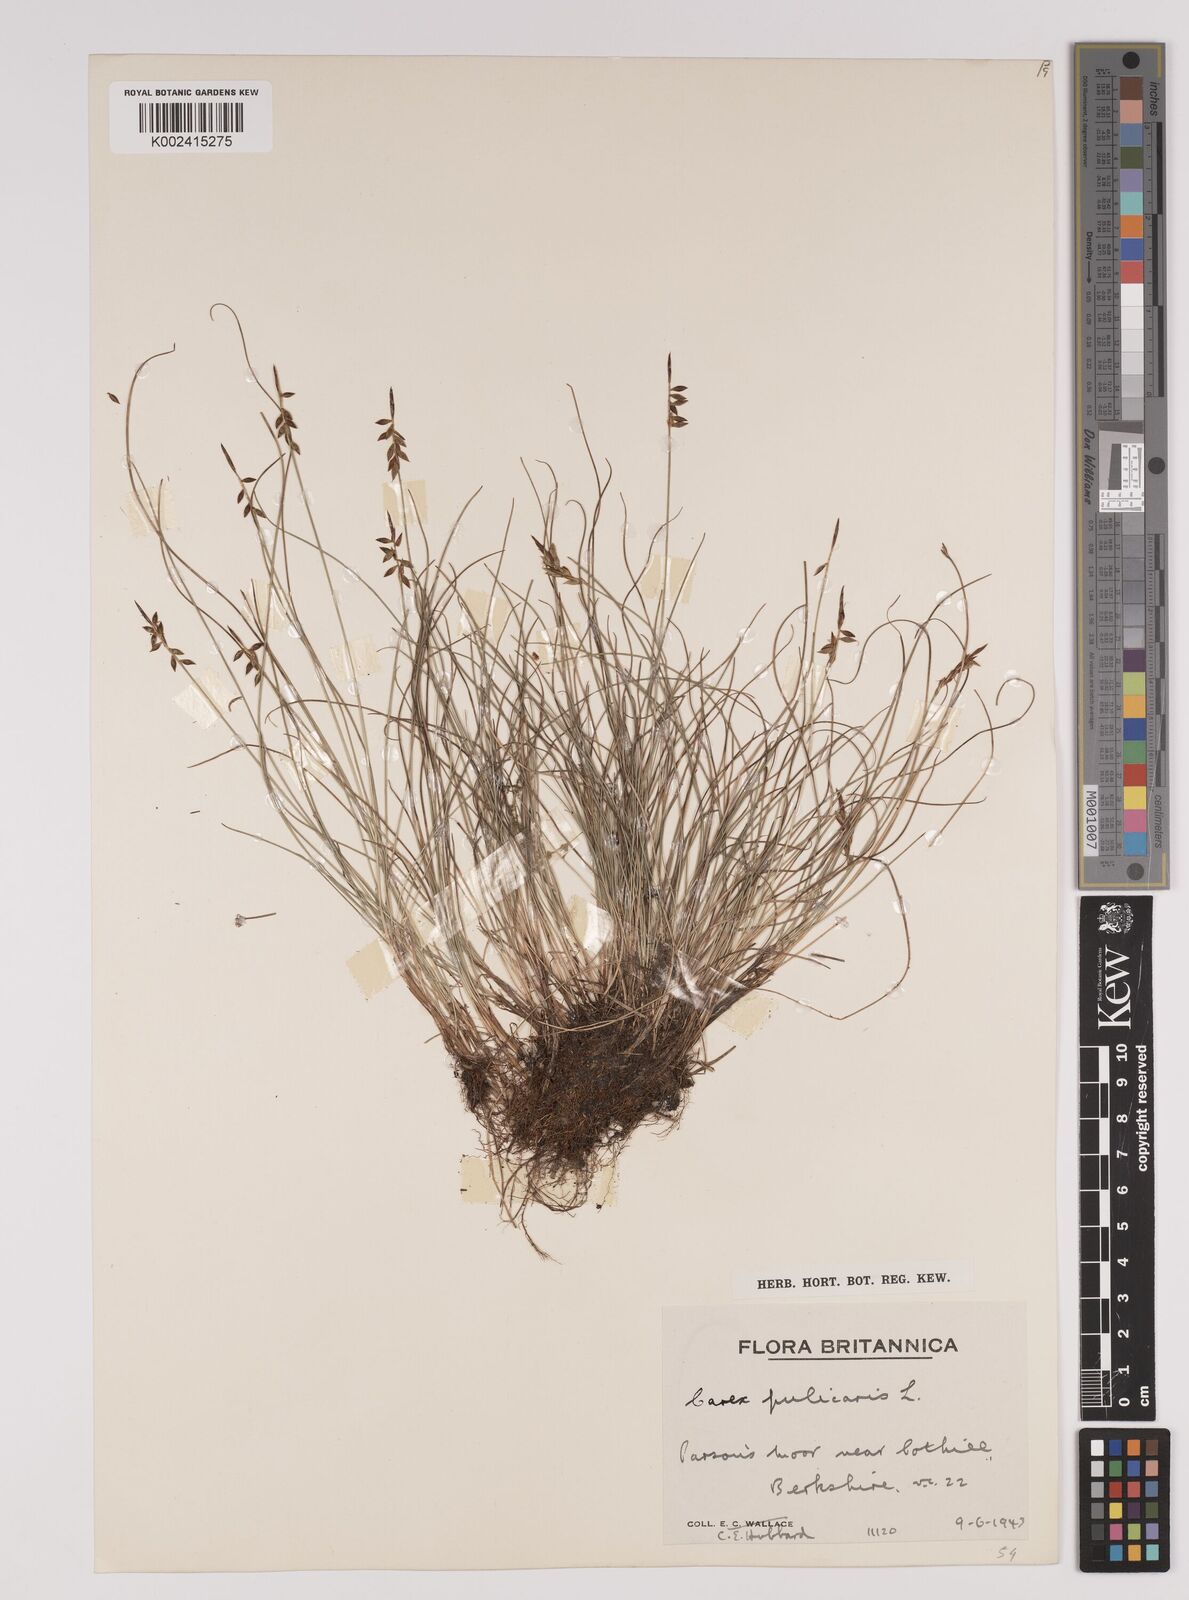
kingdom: Plantae
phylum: Tracheophyta
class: Liliopsida
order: Poales
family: Cyperaceae
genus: Carex
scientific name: Carex pulicaris
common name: Flea sedge
